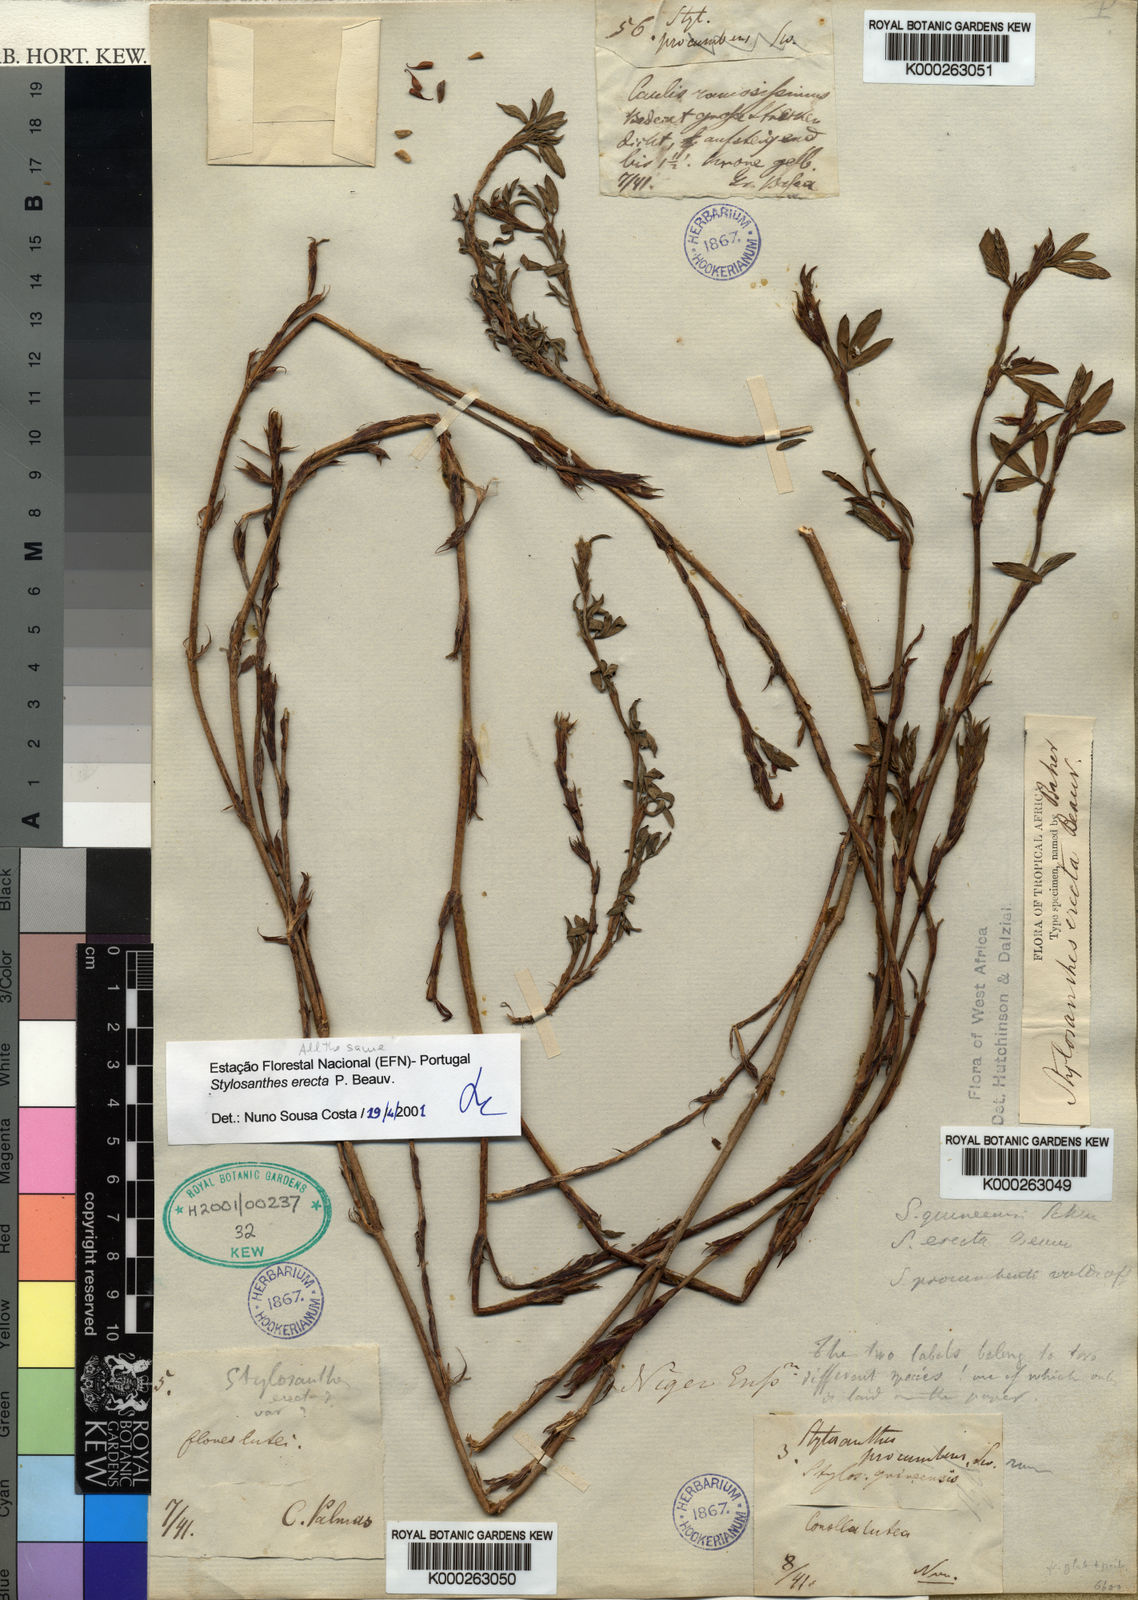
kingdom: Plantae
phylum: Tracheophyta
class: Magnoliopsida
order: Fabales
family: Fabaceae
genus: Stylosanthes
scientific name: Stylosanthes erecta
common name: Nigerian stylo
